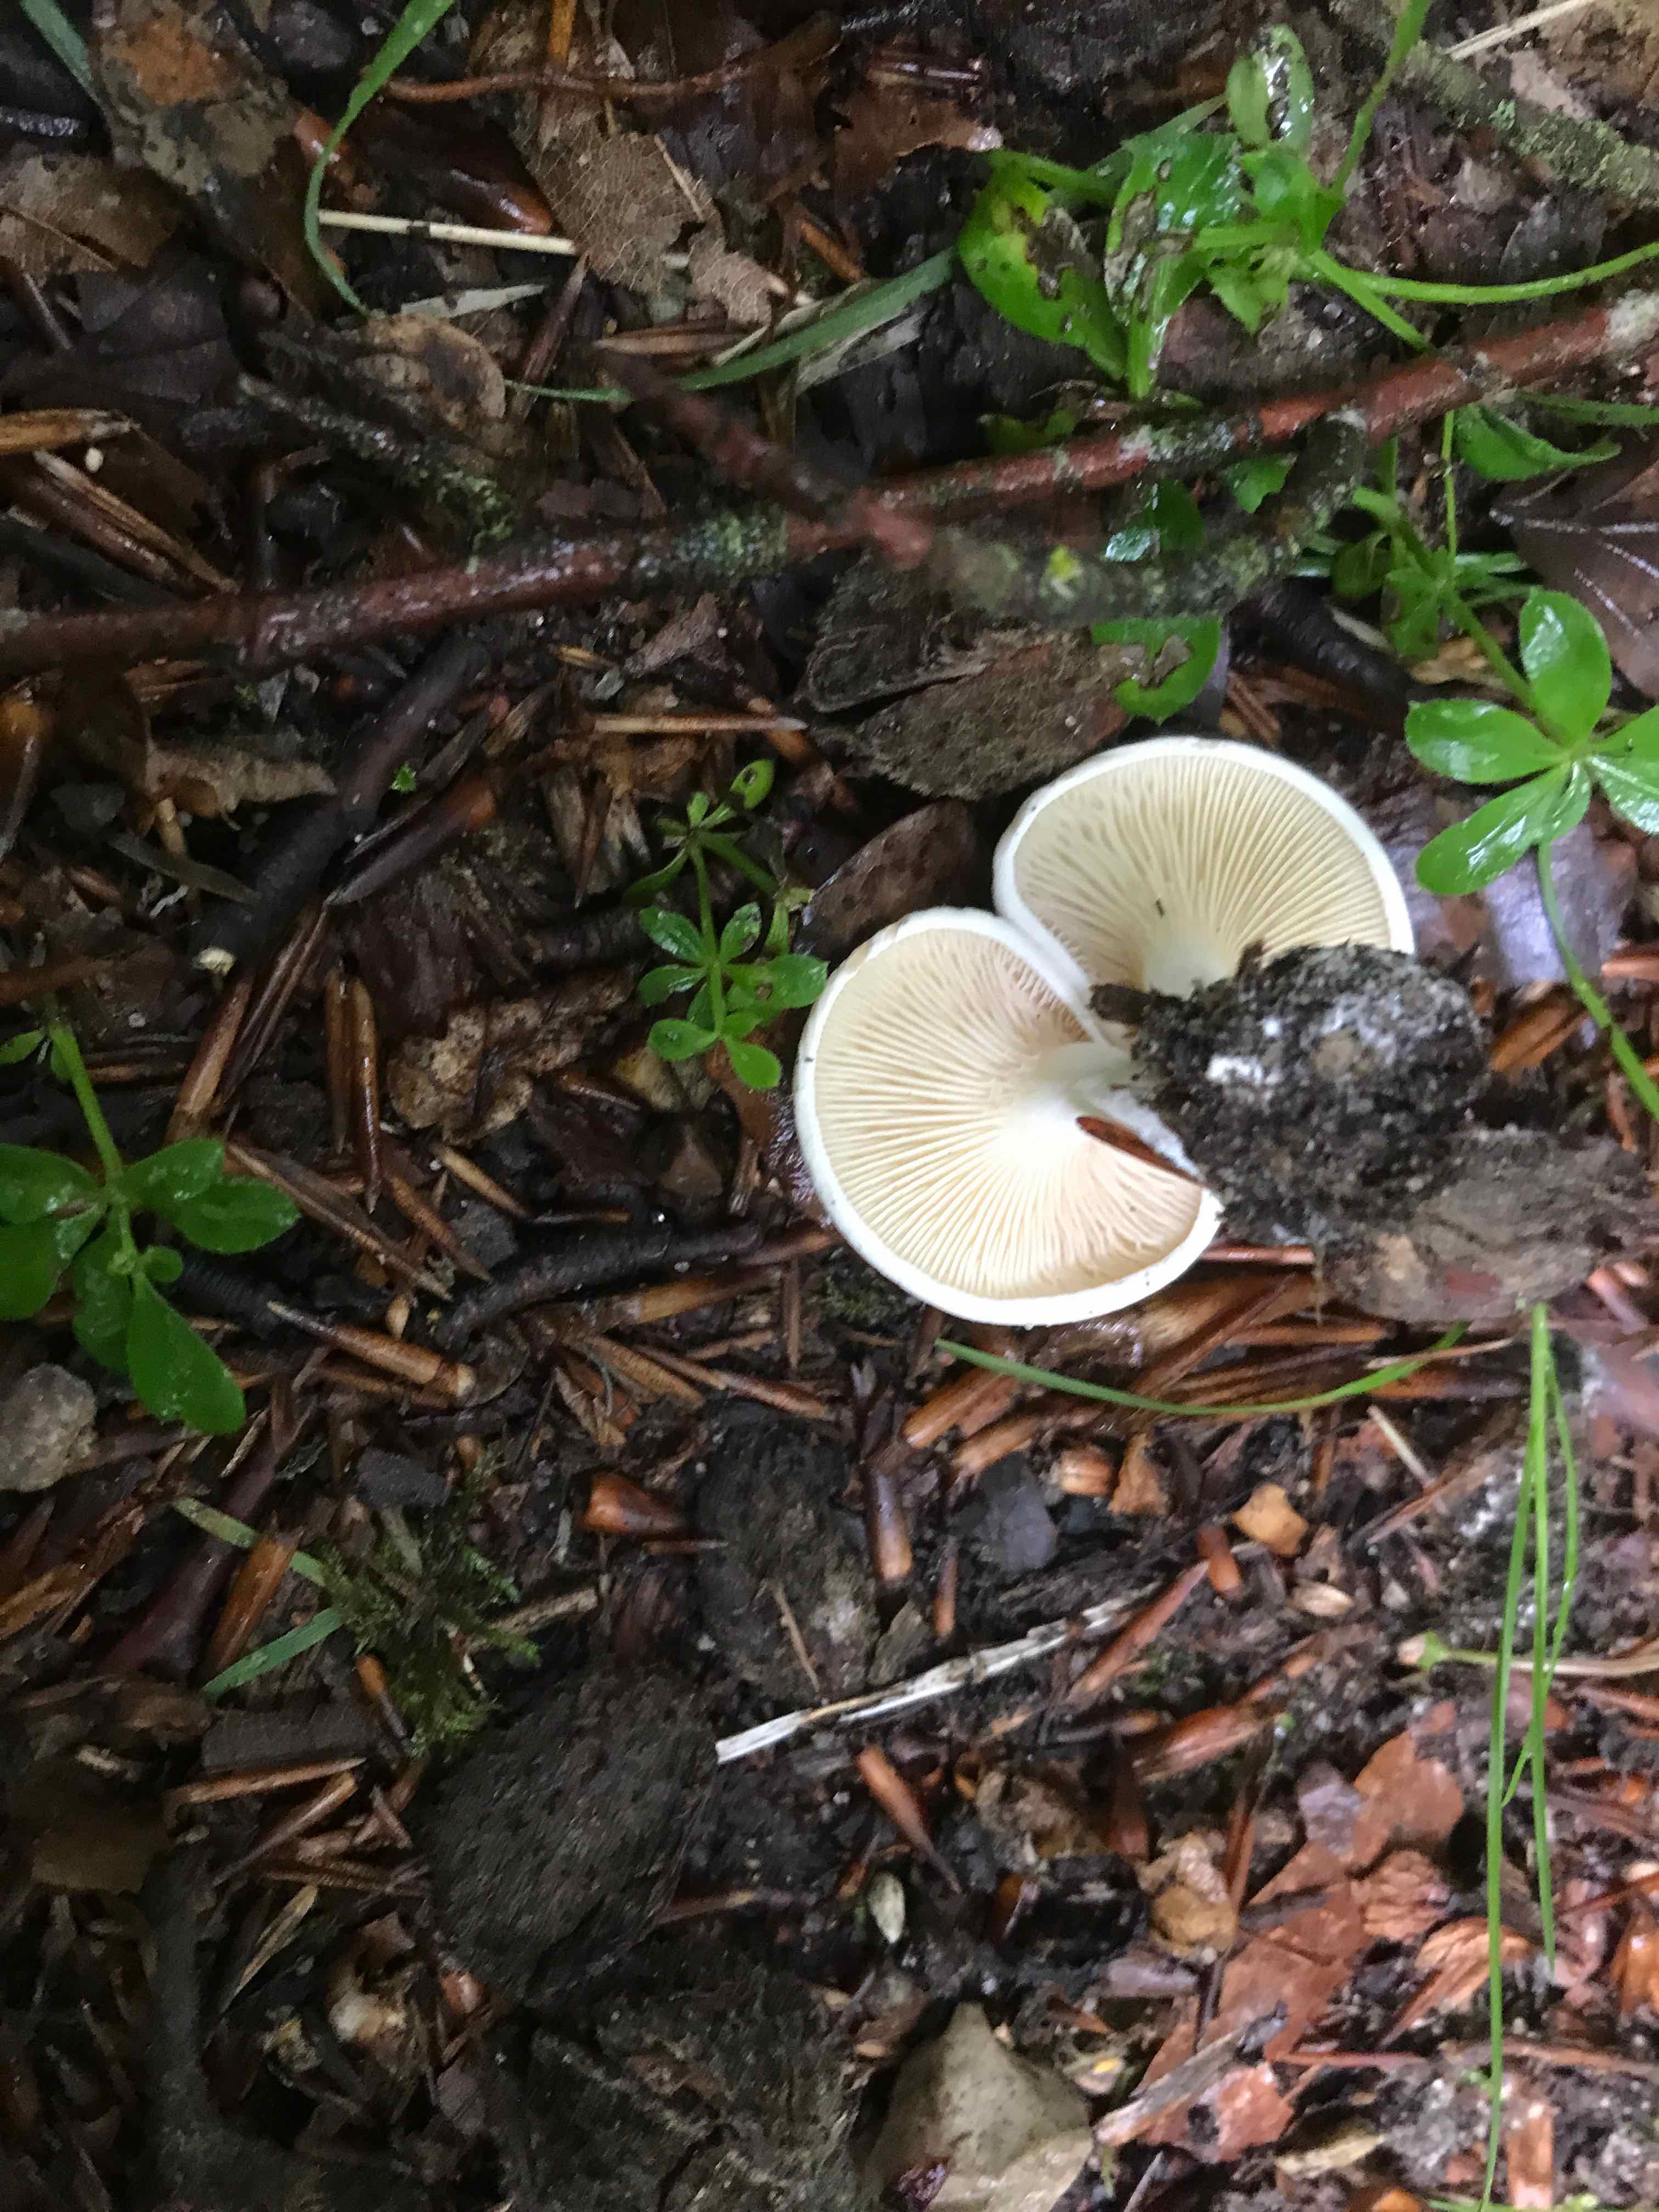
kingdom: Fungi
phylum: Basidiomycota
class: Agaricomycetes
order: Agaricales
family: Entolomataceae
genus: Clitopilus
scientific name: Clitopilus prunulus
